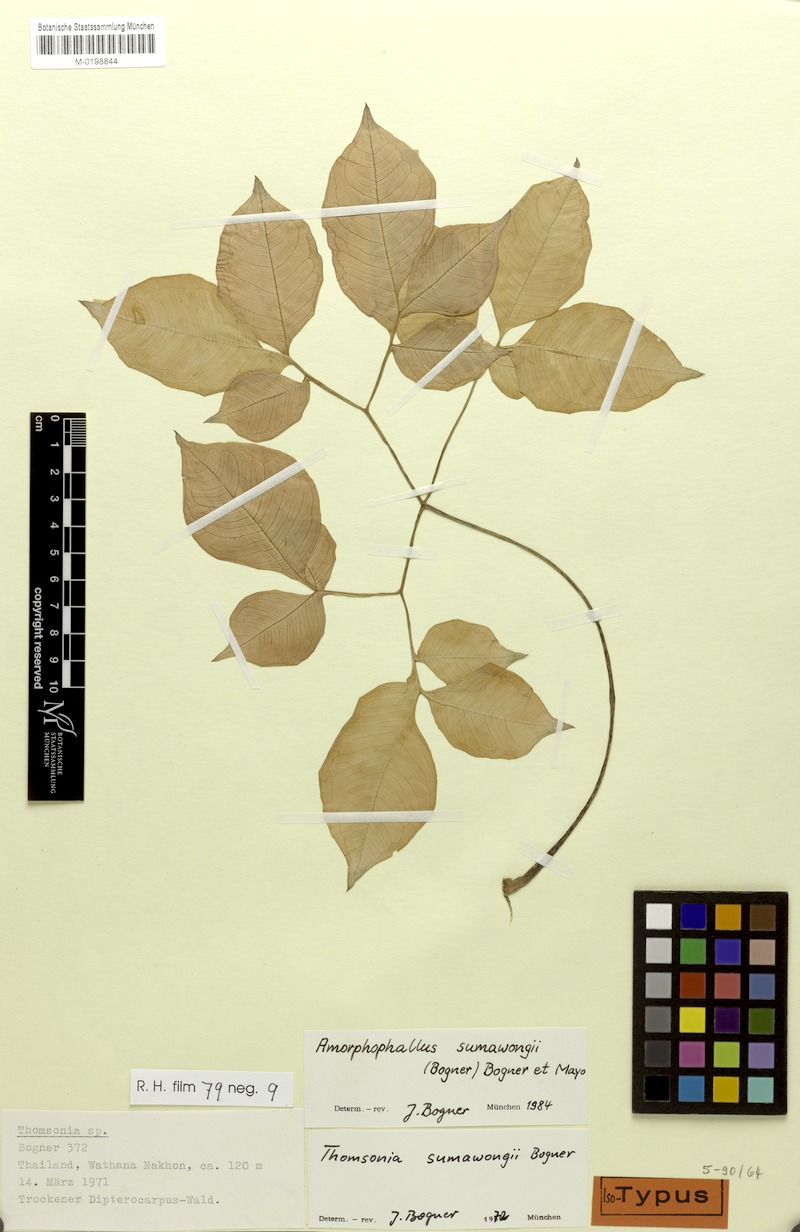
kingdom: Plantae
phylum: Tracheophyta
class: Liliopsida
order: Alismatales
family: Araceae
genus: Amorphophallus
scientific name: Amorphophallus sumawongii
